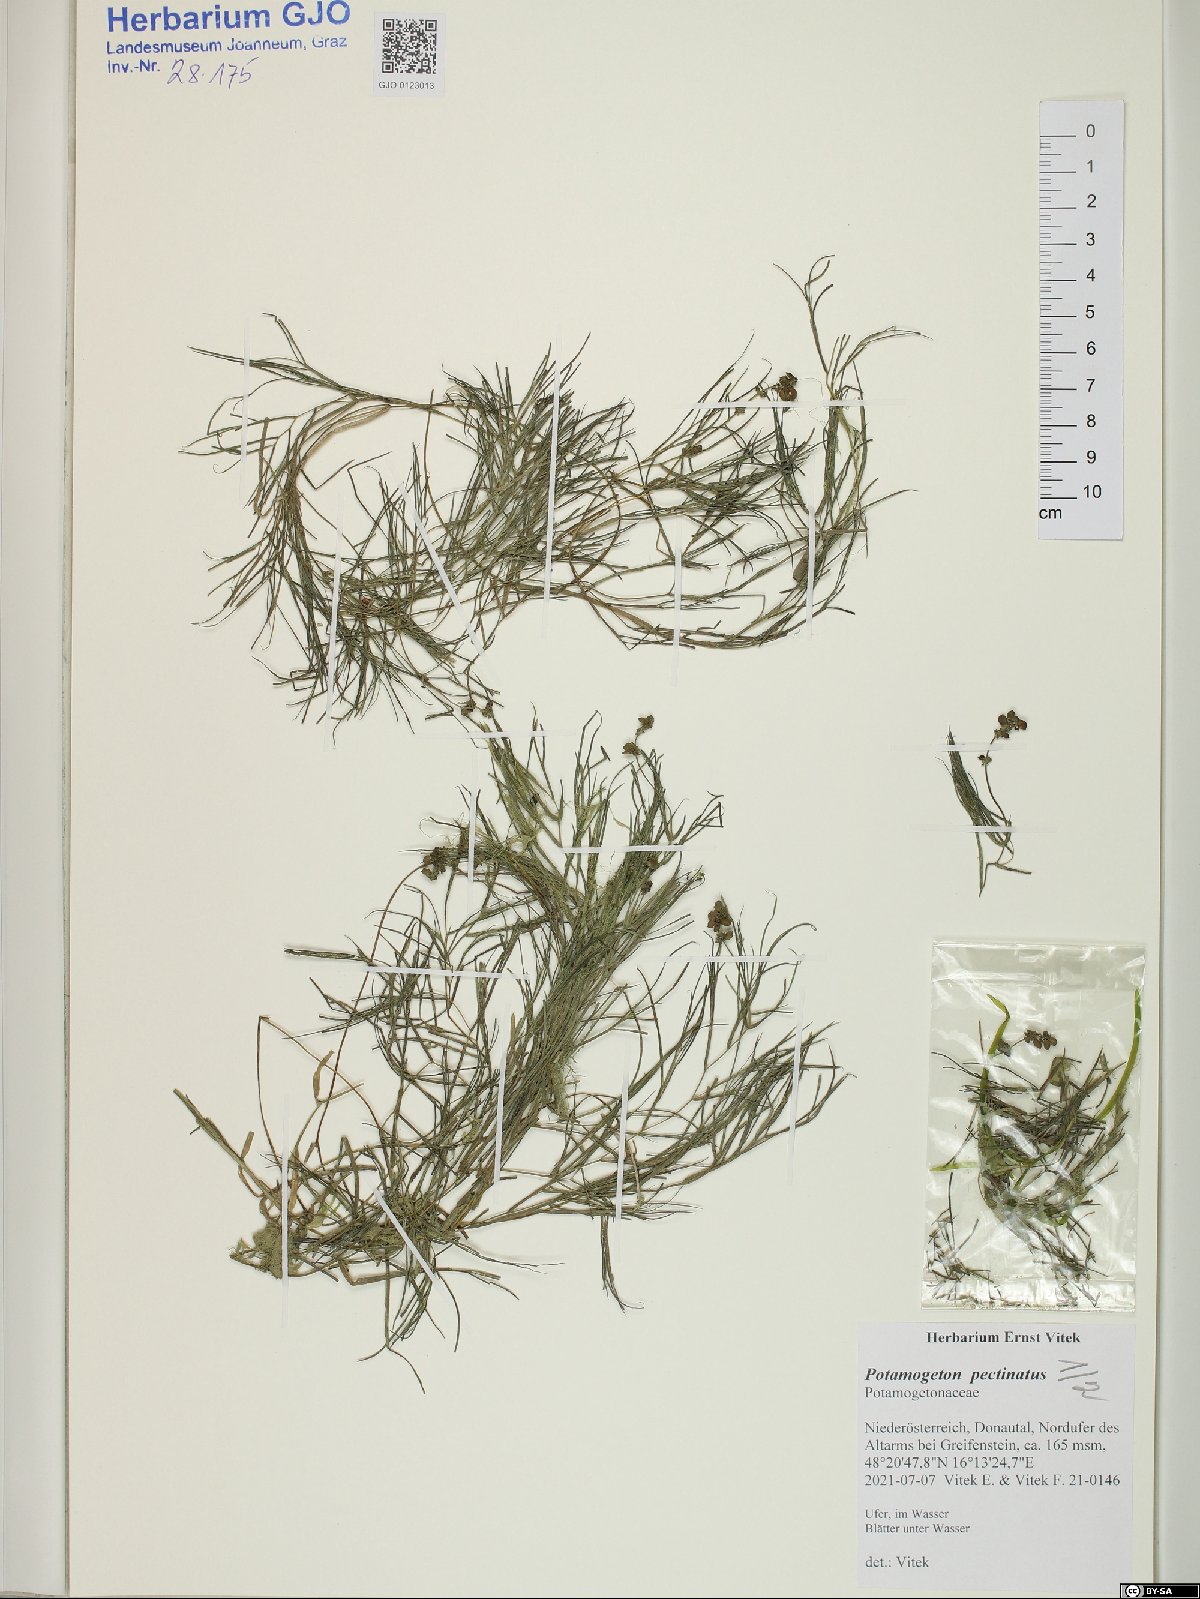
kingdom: Plantae
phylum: Tracheophyta
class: Liliopsida
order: Alismatales
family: Potamogetonaceae
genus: Stuckenia
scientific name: Stuckenia pectinata
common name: Sago pondweed
